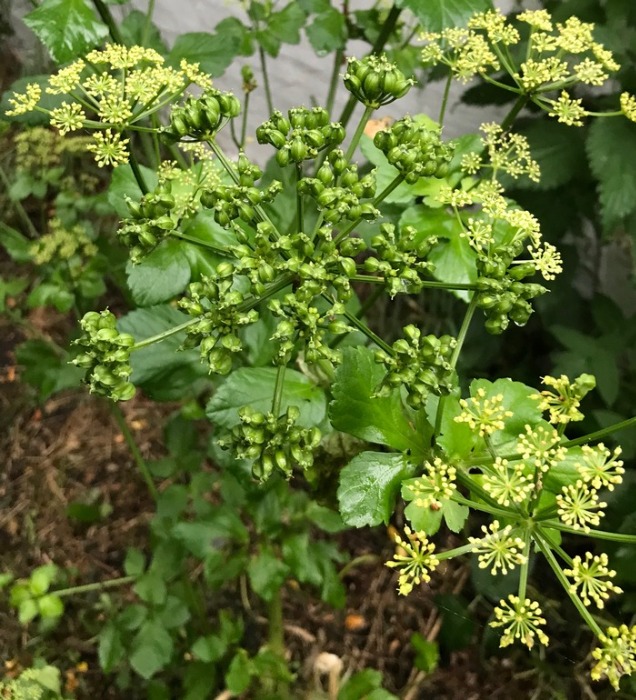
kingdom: Plantae
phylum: Tracheophyta
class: Magnoliopsida
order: Apiales
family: Apiaceae
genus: Smyrnium
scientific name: Smyrnium olusatrum
